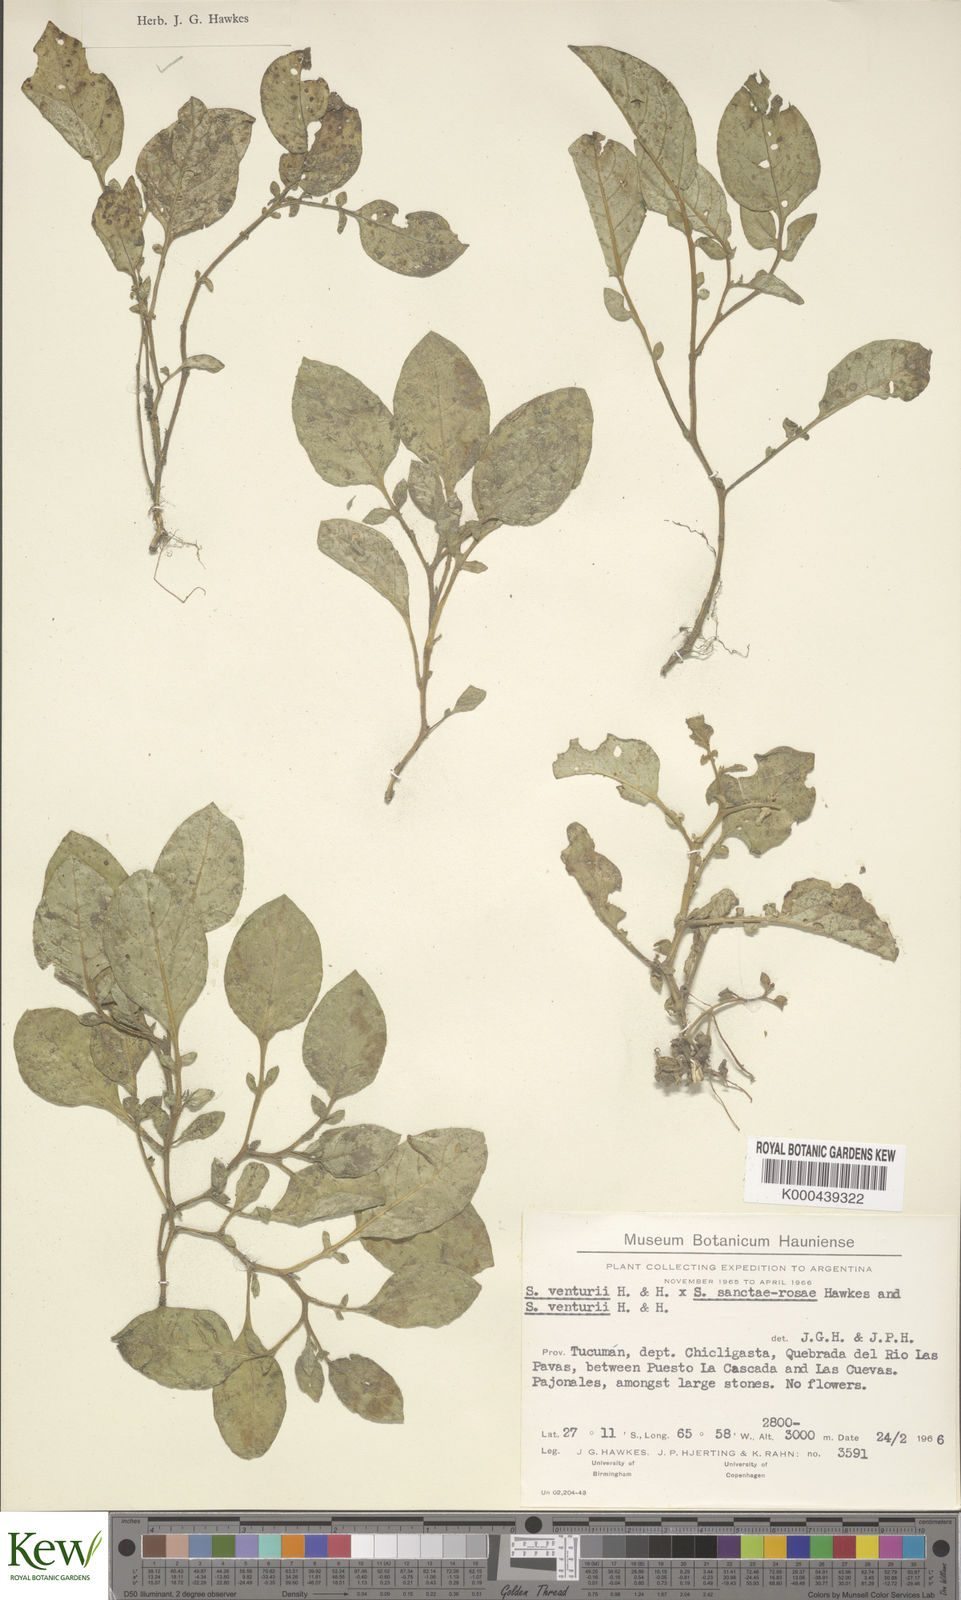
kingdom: Plantae
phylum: Tracheophyta
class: Magnoliopsida
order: Solanales
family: Solanaceae
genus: Solanum
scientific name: Solanum boliviense
